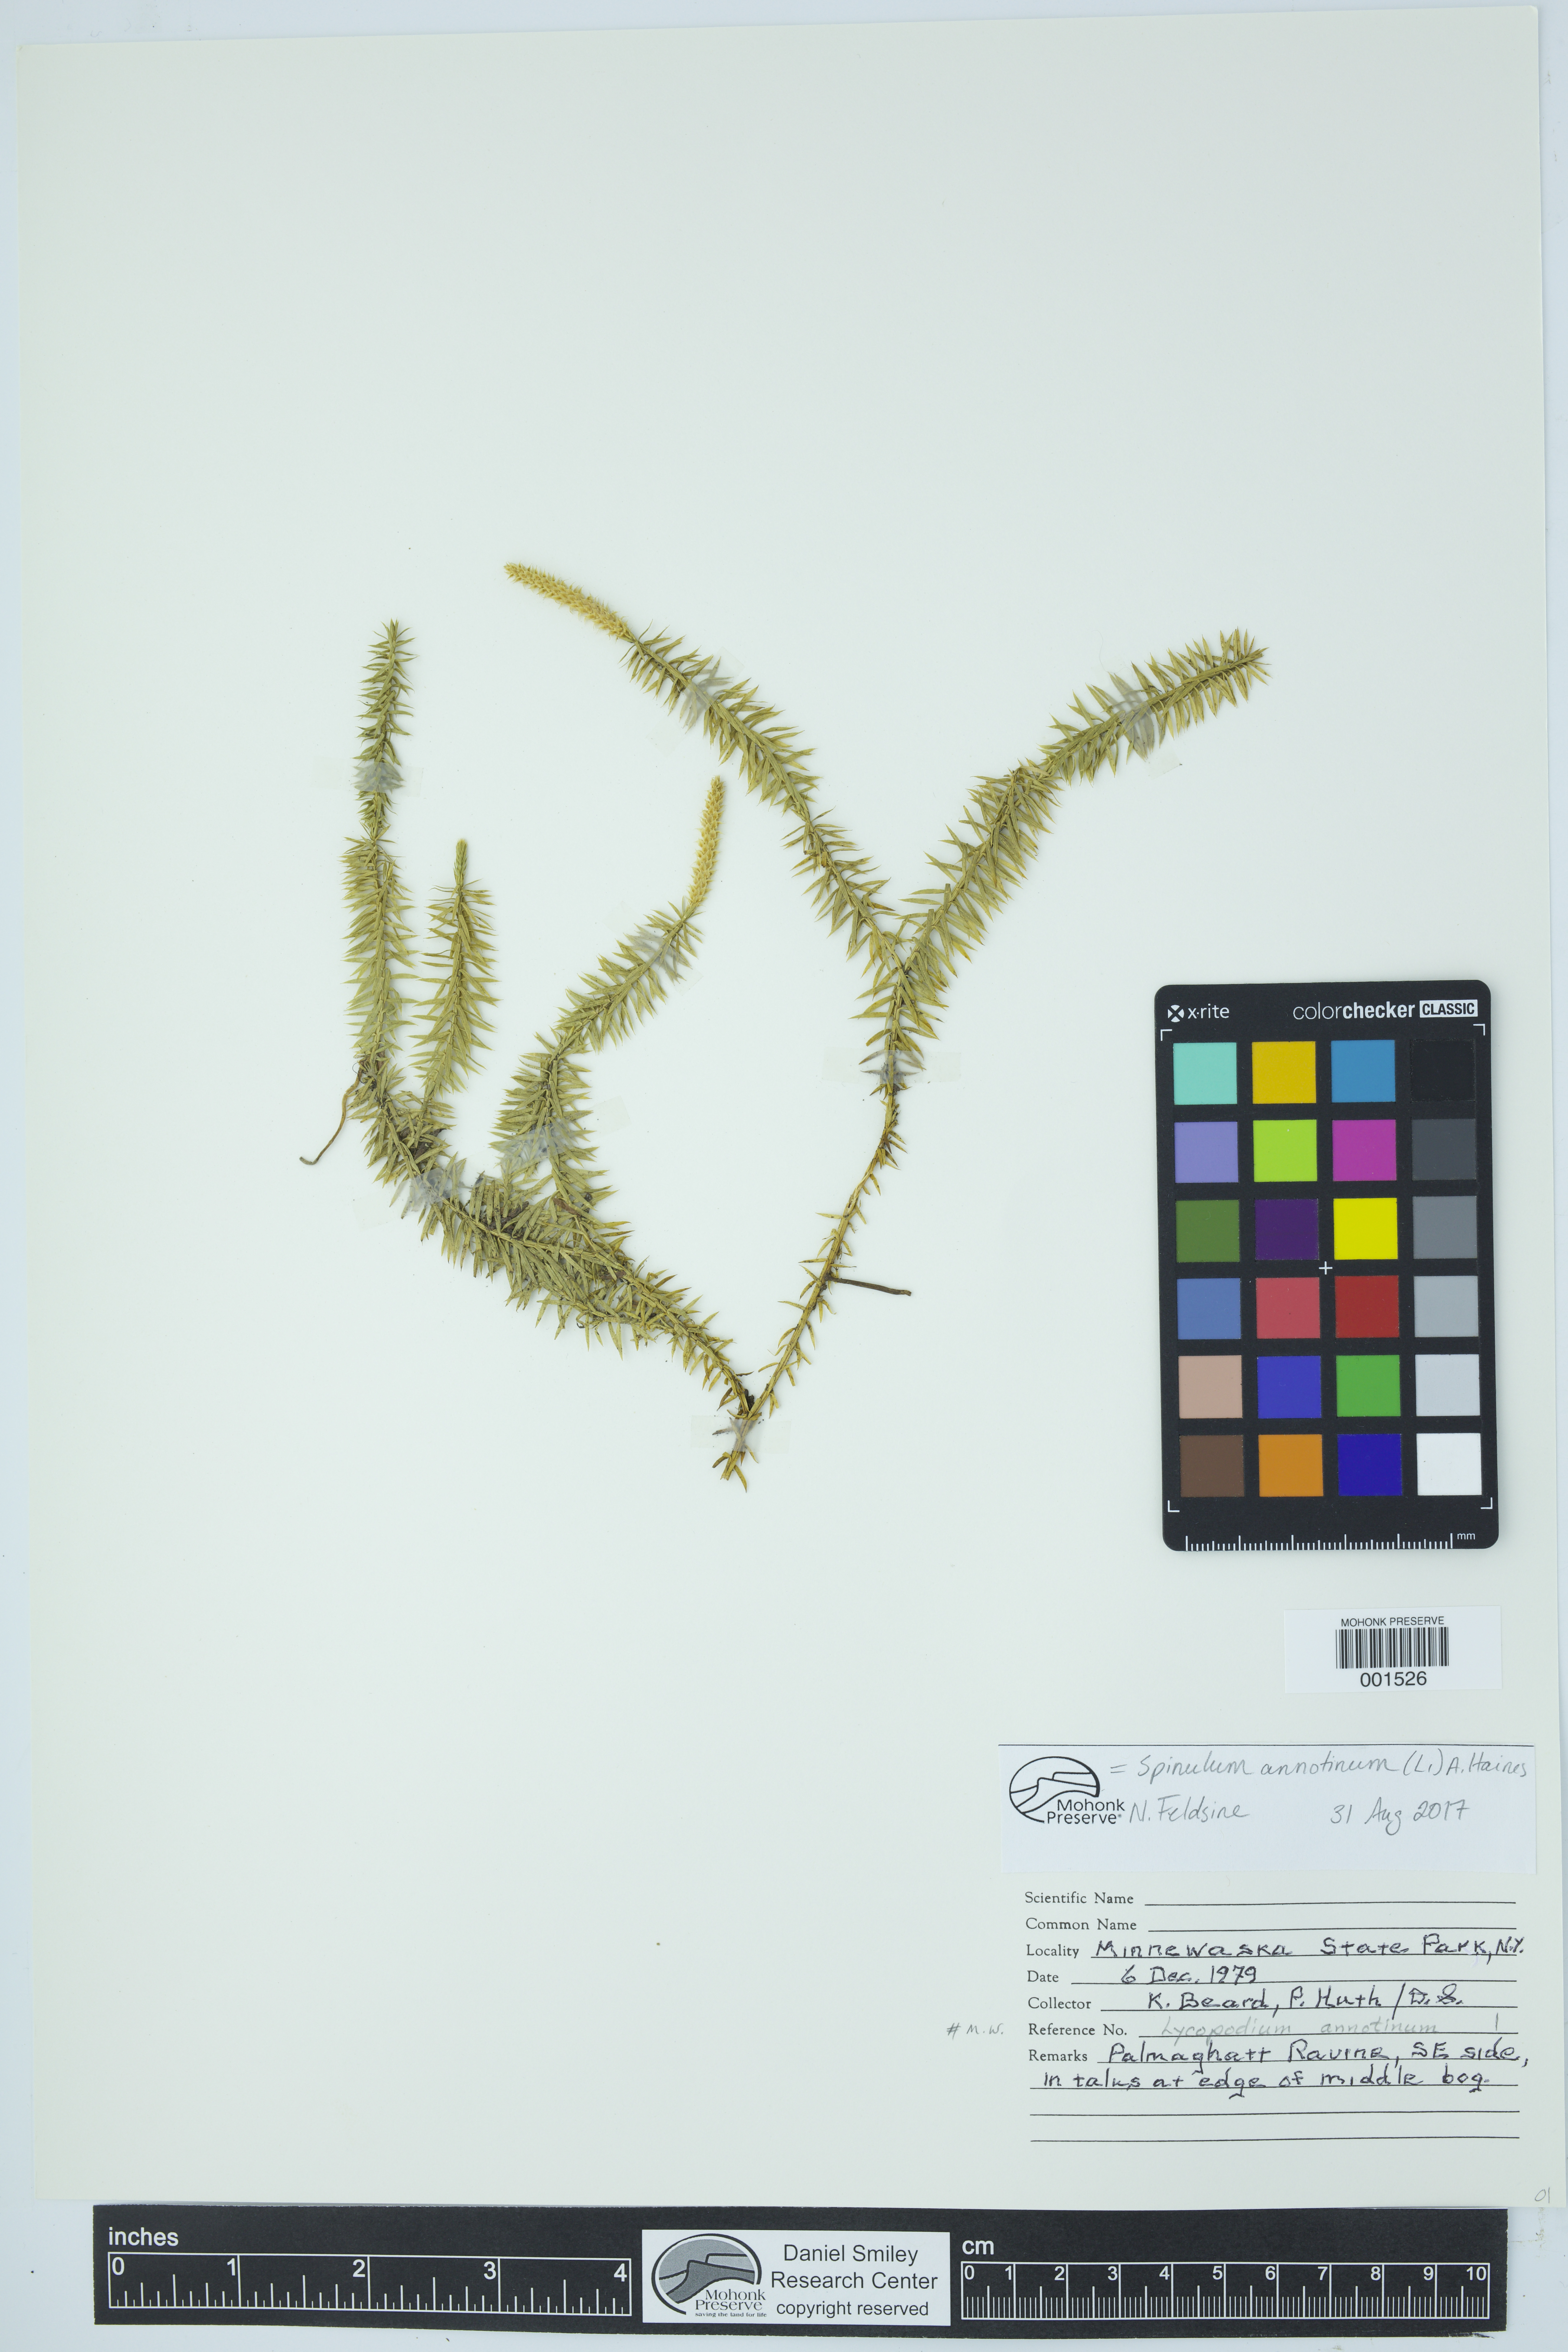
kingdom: Plantae
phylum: Tracheophyta
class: Lycopodiopsida
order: Lycopodiales
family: Lycopodiaceae
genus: Spinulum
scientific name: Spinulum annotinum
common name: Interrupted club-moss
